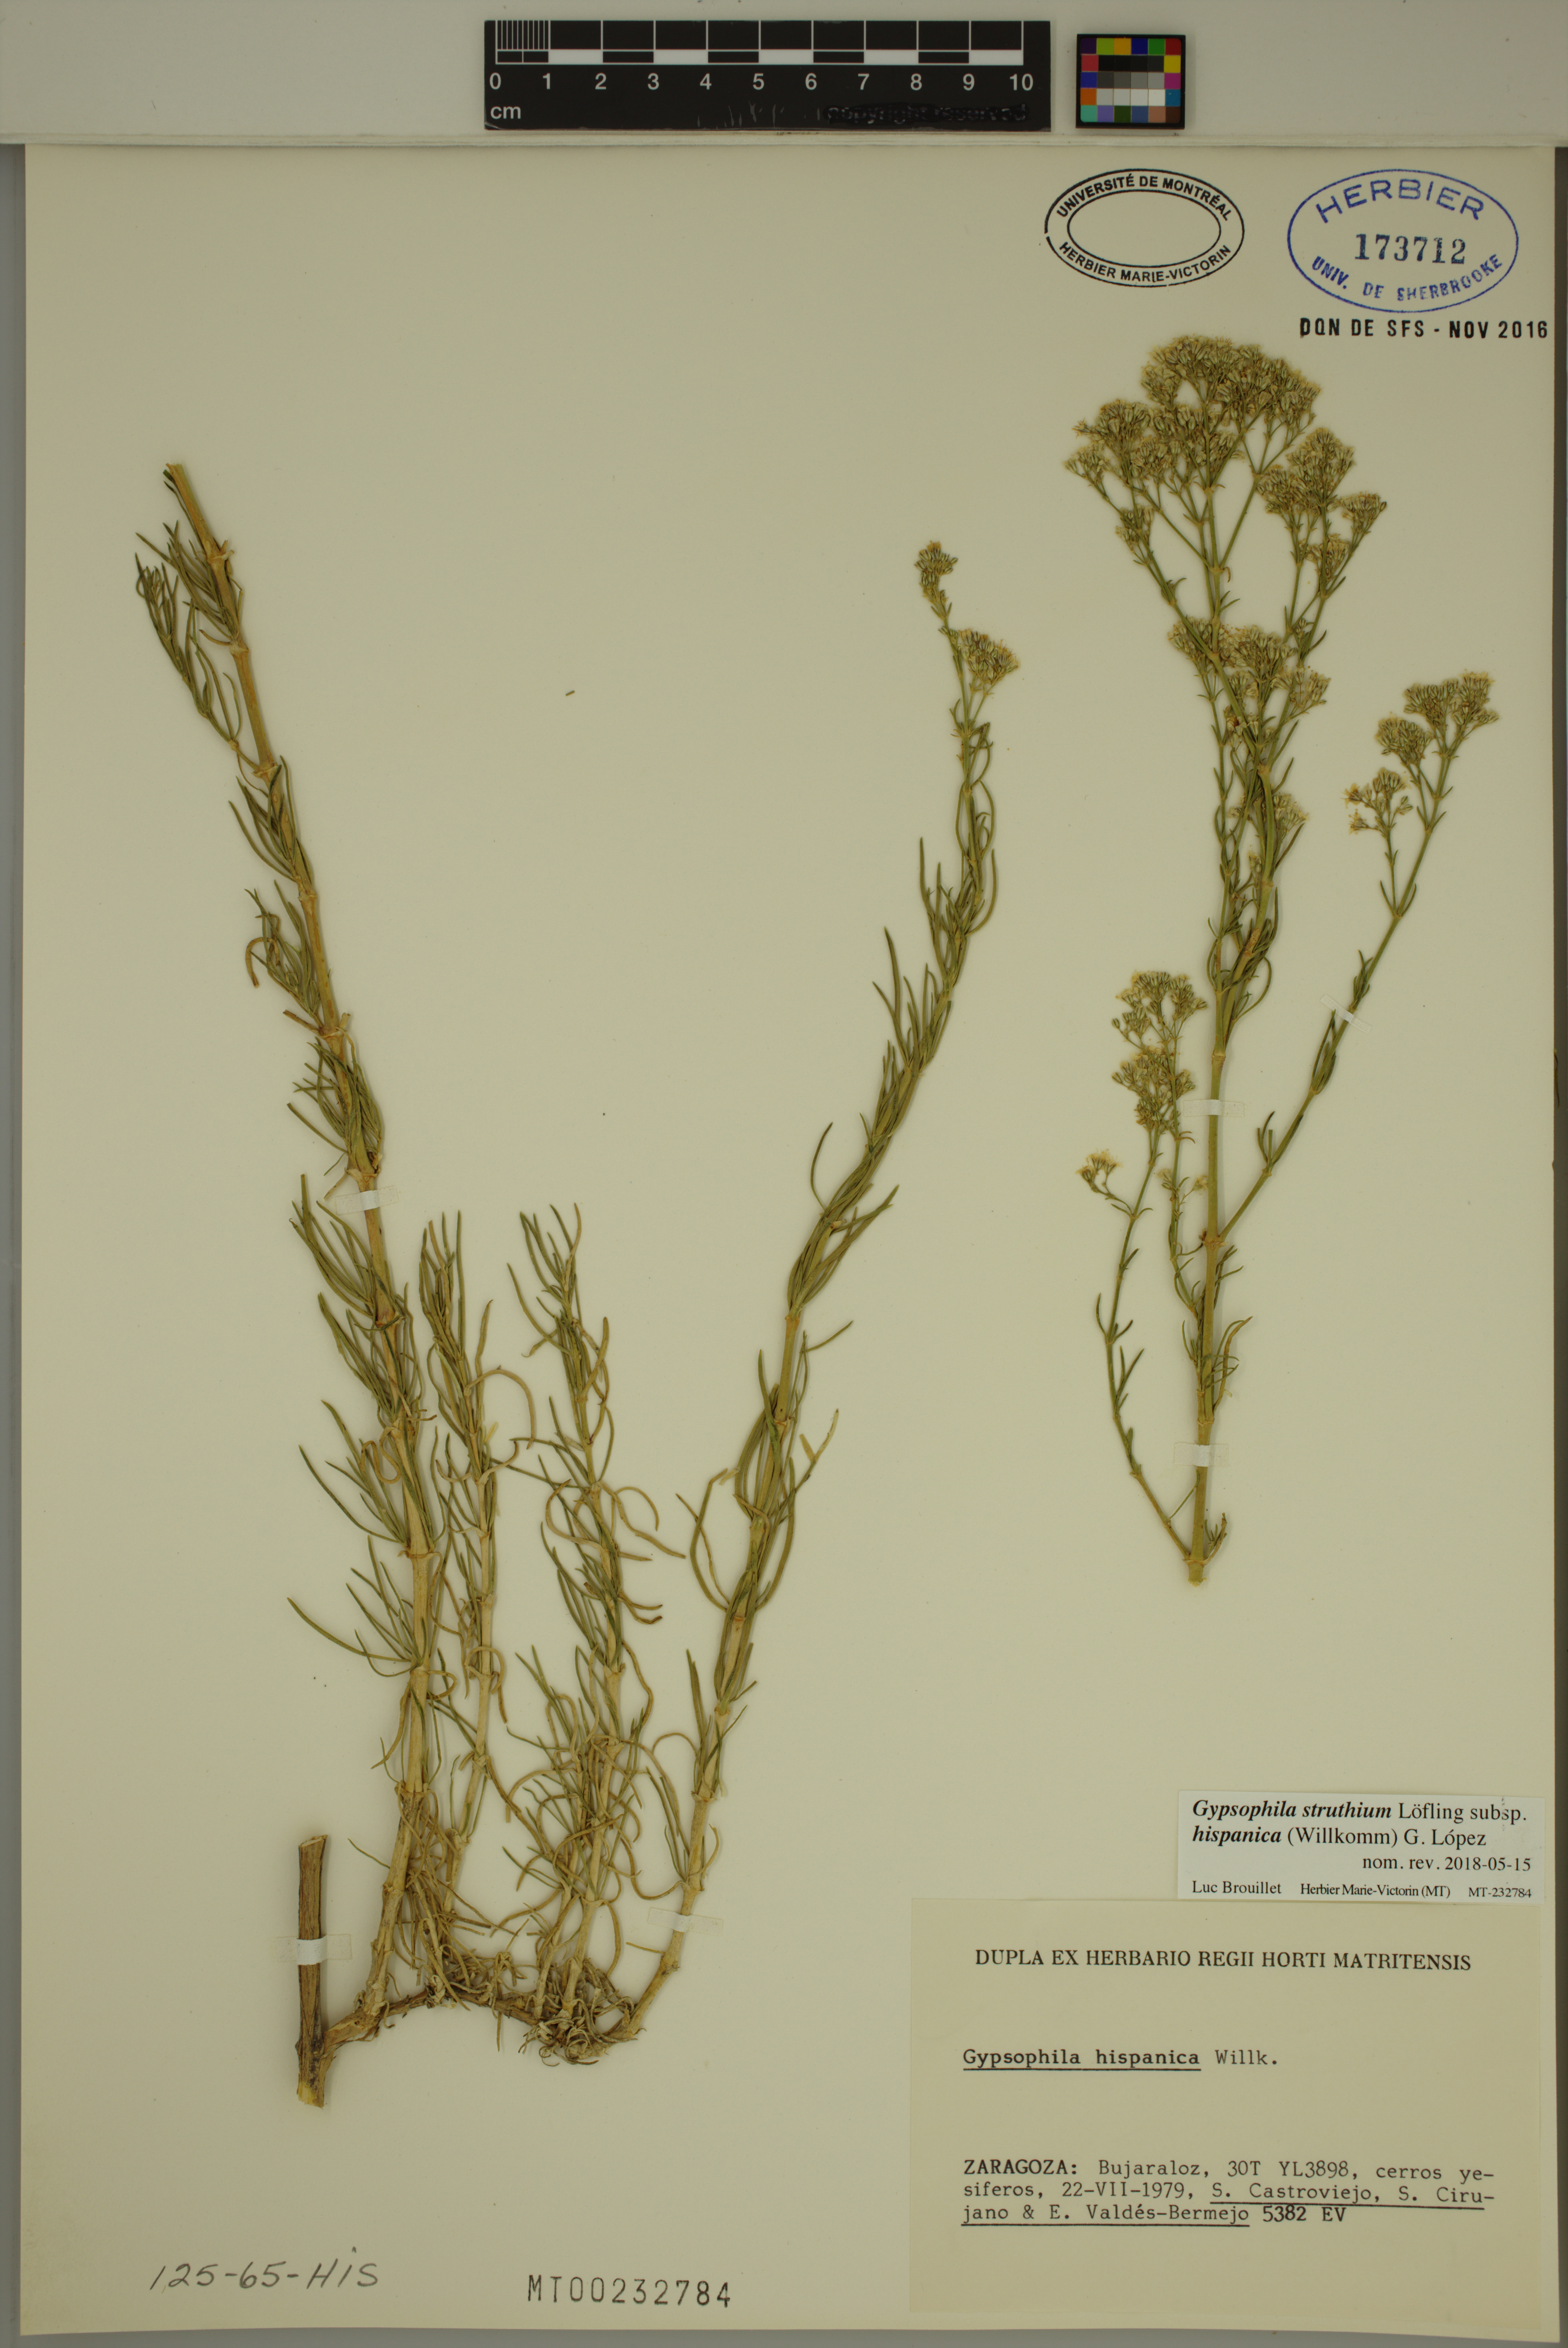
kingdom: Plantae
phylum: Tracheophyta
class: Magnoliopsida
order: Caryophyllales
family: Caryophyllaceae
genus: Gypsophila
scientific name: Gypsophila struthium
